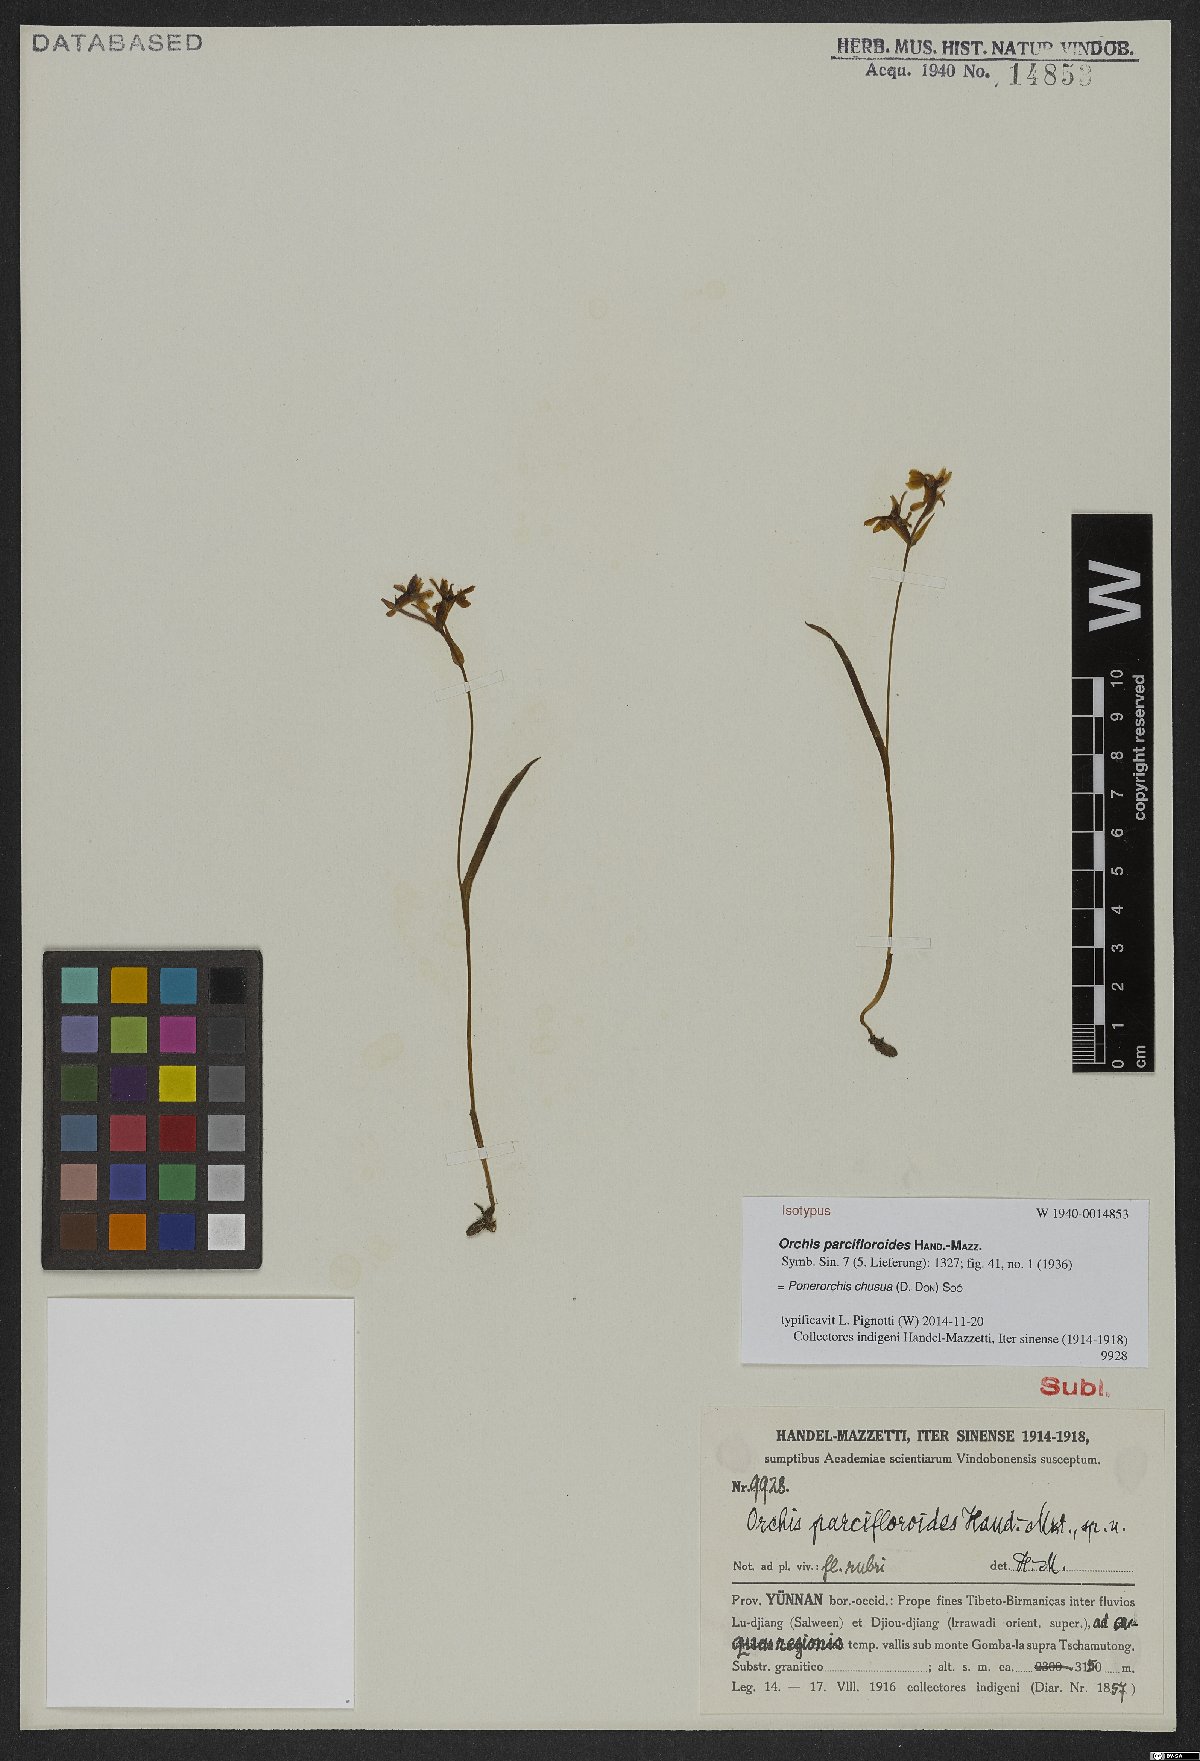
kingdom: Plantae
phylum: Tracheophyta
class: Liliopsida
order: Asparagales
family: Orchidaceae
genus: Hemipilia
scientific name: Hemipilia chusua
